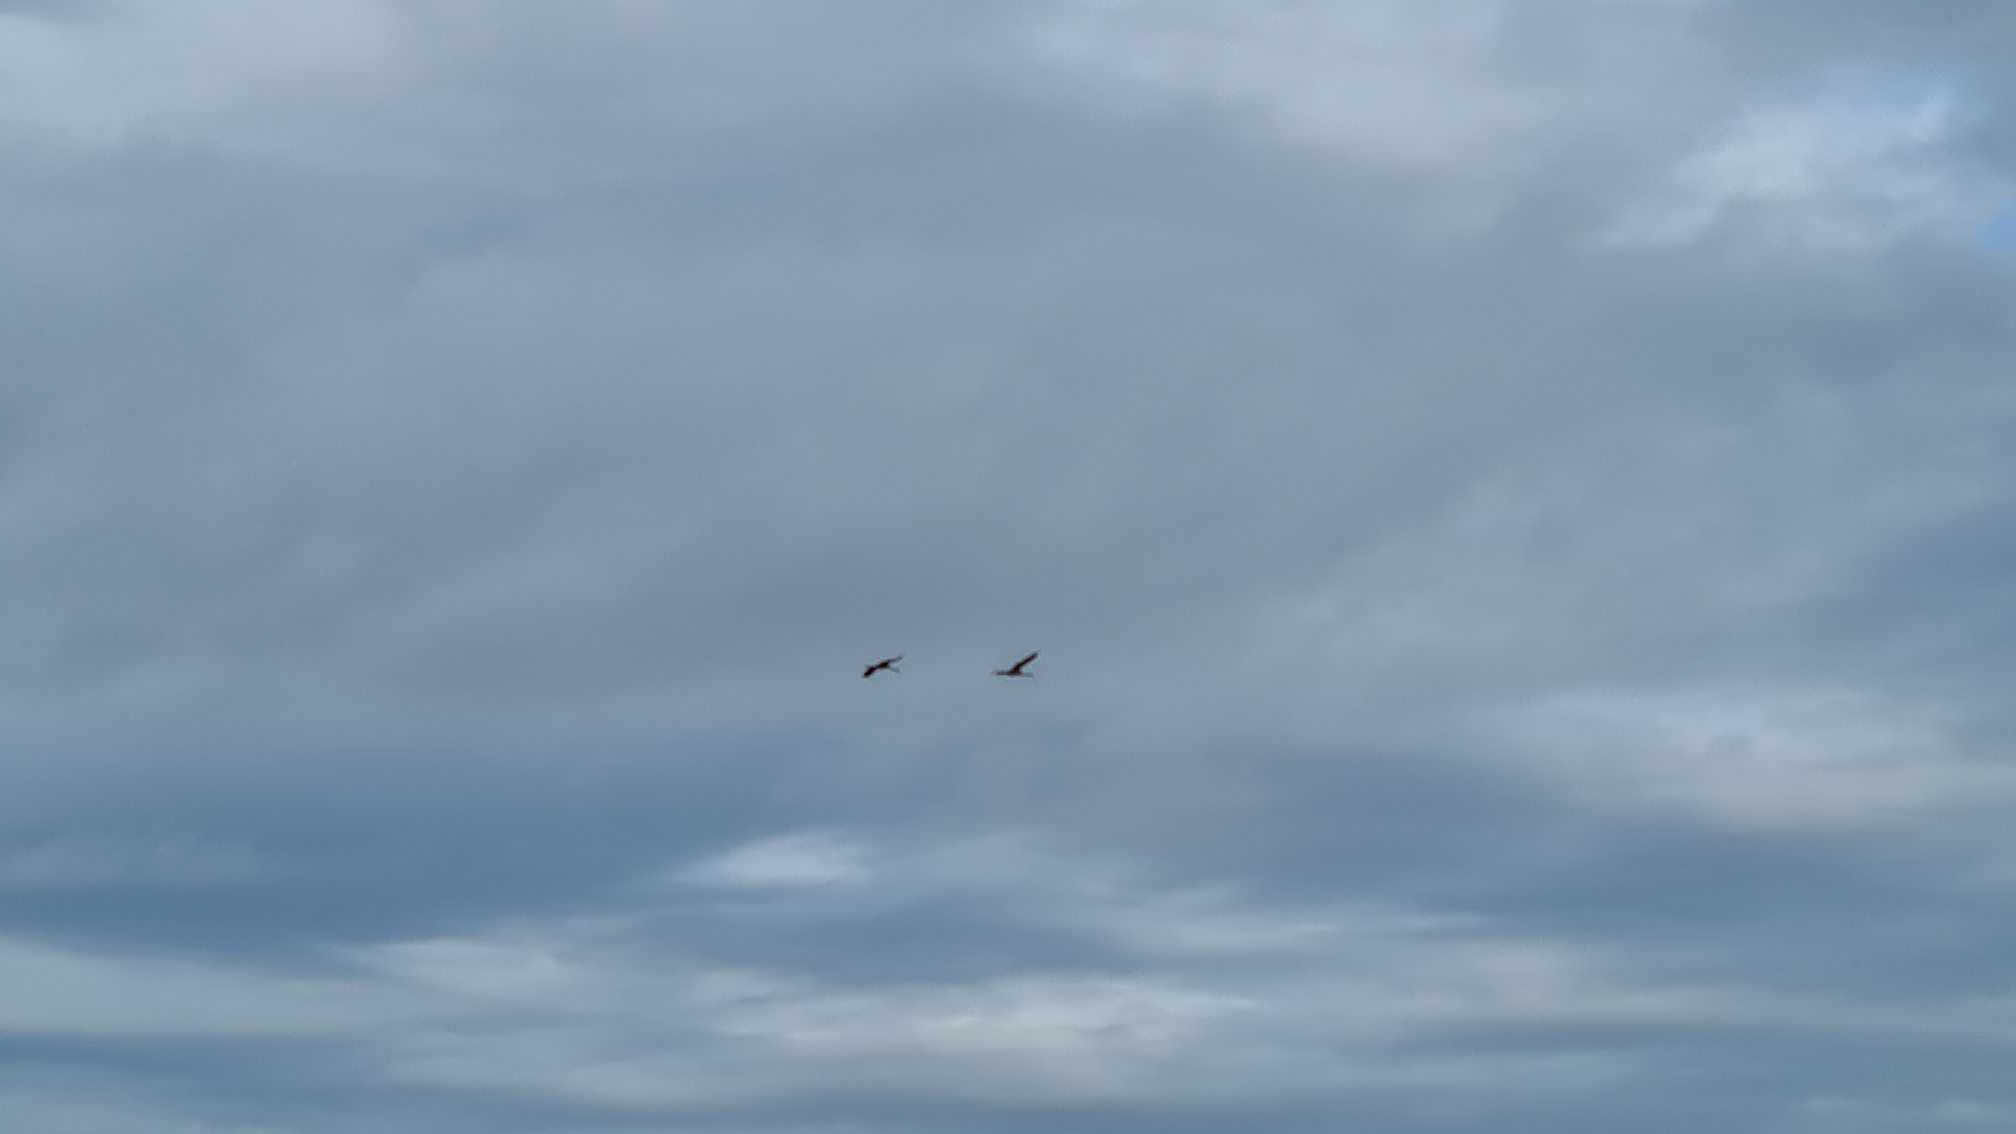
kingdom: Animalia
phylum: Chordata
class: Aves
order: Gruiformes
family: Gruidae
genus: Grus
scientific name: Grus grus
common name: Trane
